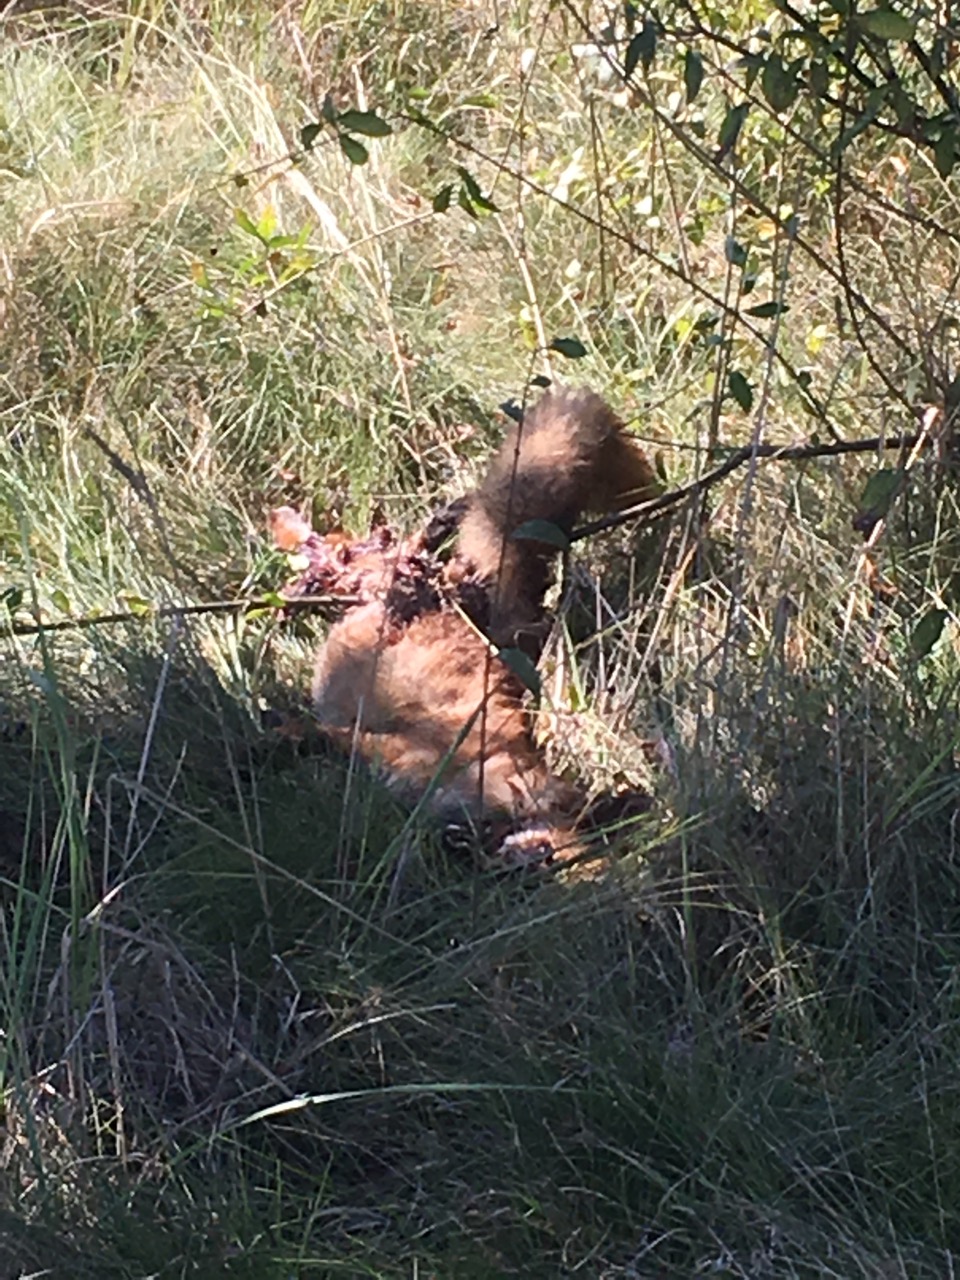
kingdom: Animalia
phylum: Chordata
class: Mammalia
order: Carnivora
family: Canidae
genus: Vulpes
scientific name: Vulpes vulpes
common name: Red fox
